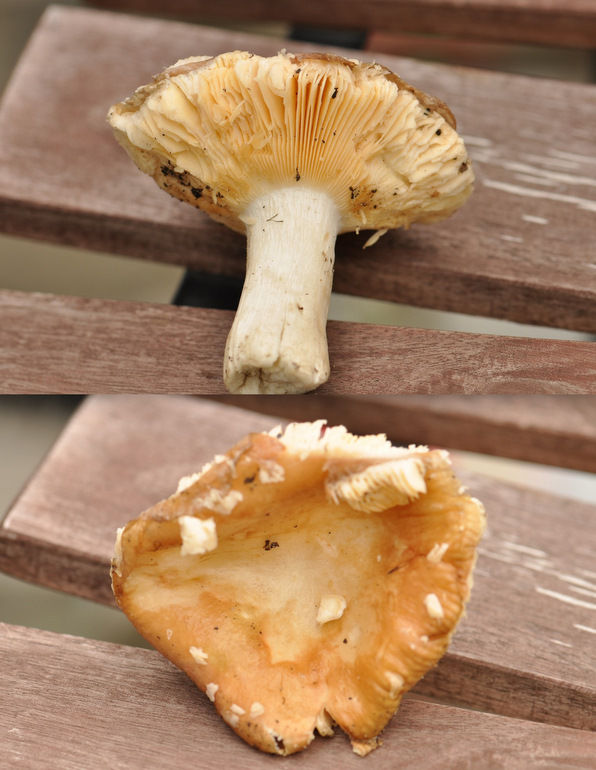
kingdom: Fungi
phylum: Basidiomycota
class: Agaricomycetes
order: Russulales
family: Russulaceae
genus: Russula
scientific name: Russula veternosa
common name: blødkødet skørhat
